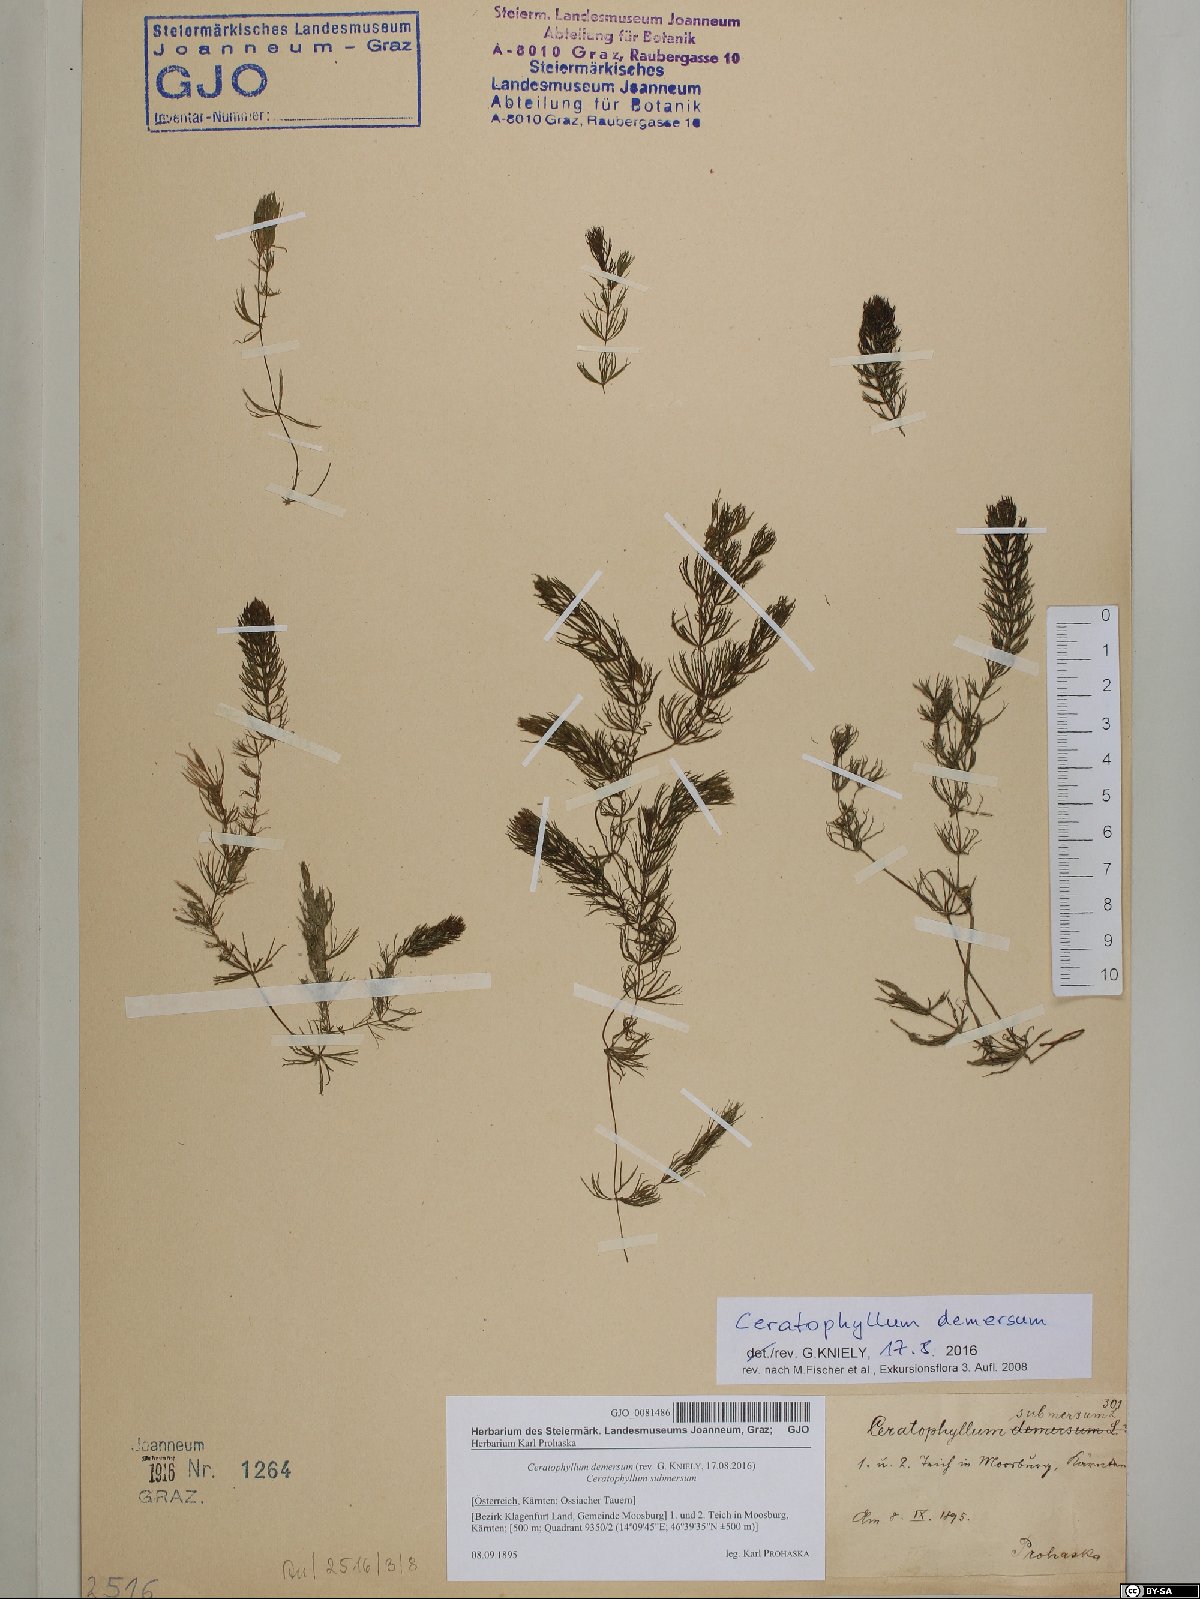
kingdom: Plantae
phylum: Tracheophyta
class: Magnoliopsida
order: Ceratophyllales
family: Ceratophyllaceae
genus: Ceratophyllum
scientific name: Ceratophyllum demersum
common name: Rigid hornwort
